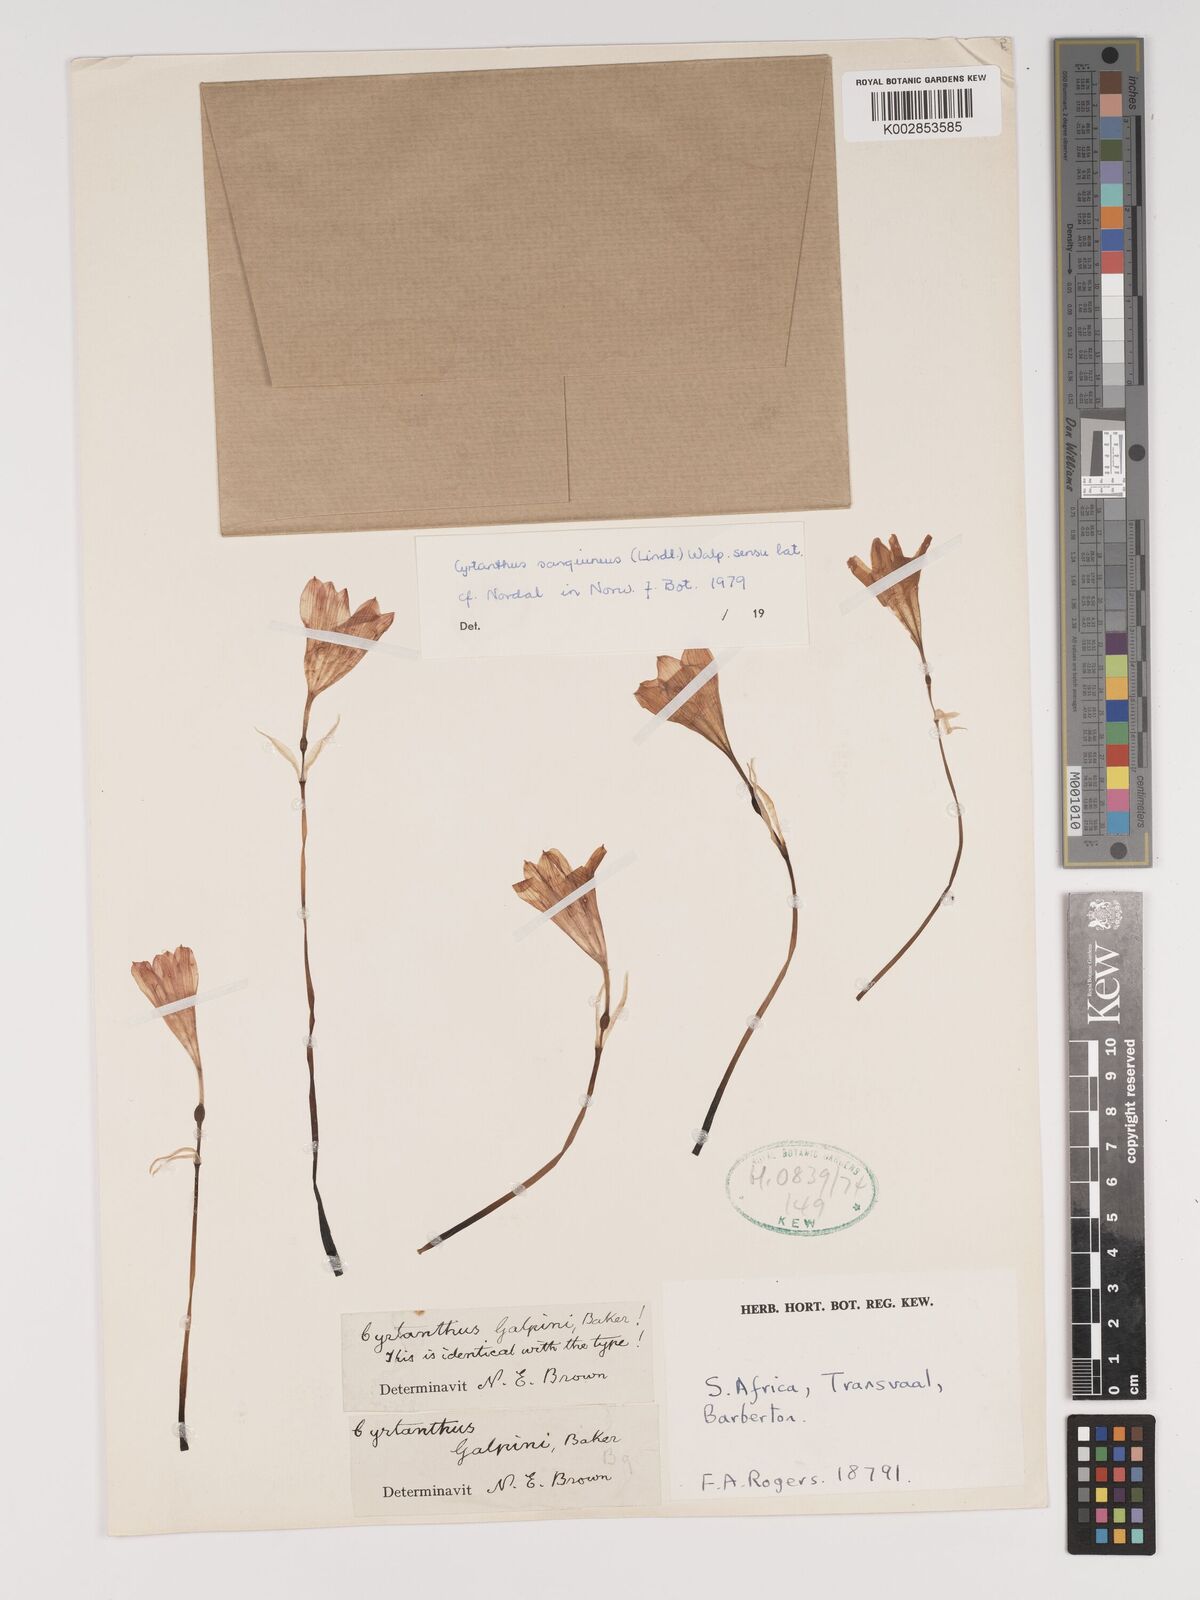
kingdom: Plantae
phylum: Tracheophyta
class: Liliopsida
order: Asparagales
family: Amaryllidaceae
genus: Cyrtanthus
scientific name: Cyrtanthus sanguineus
